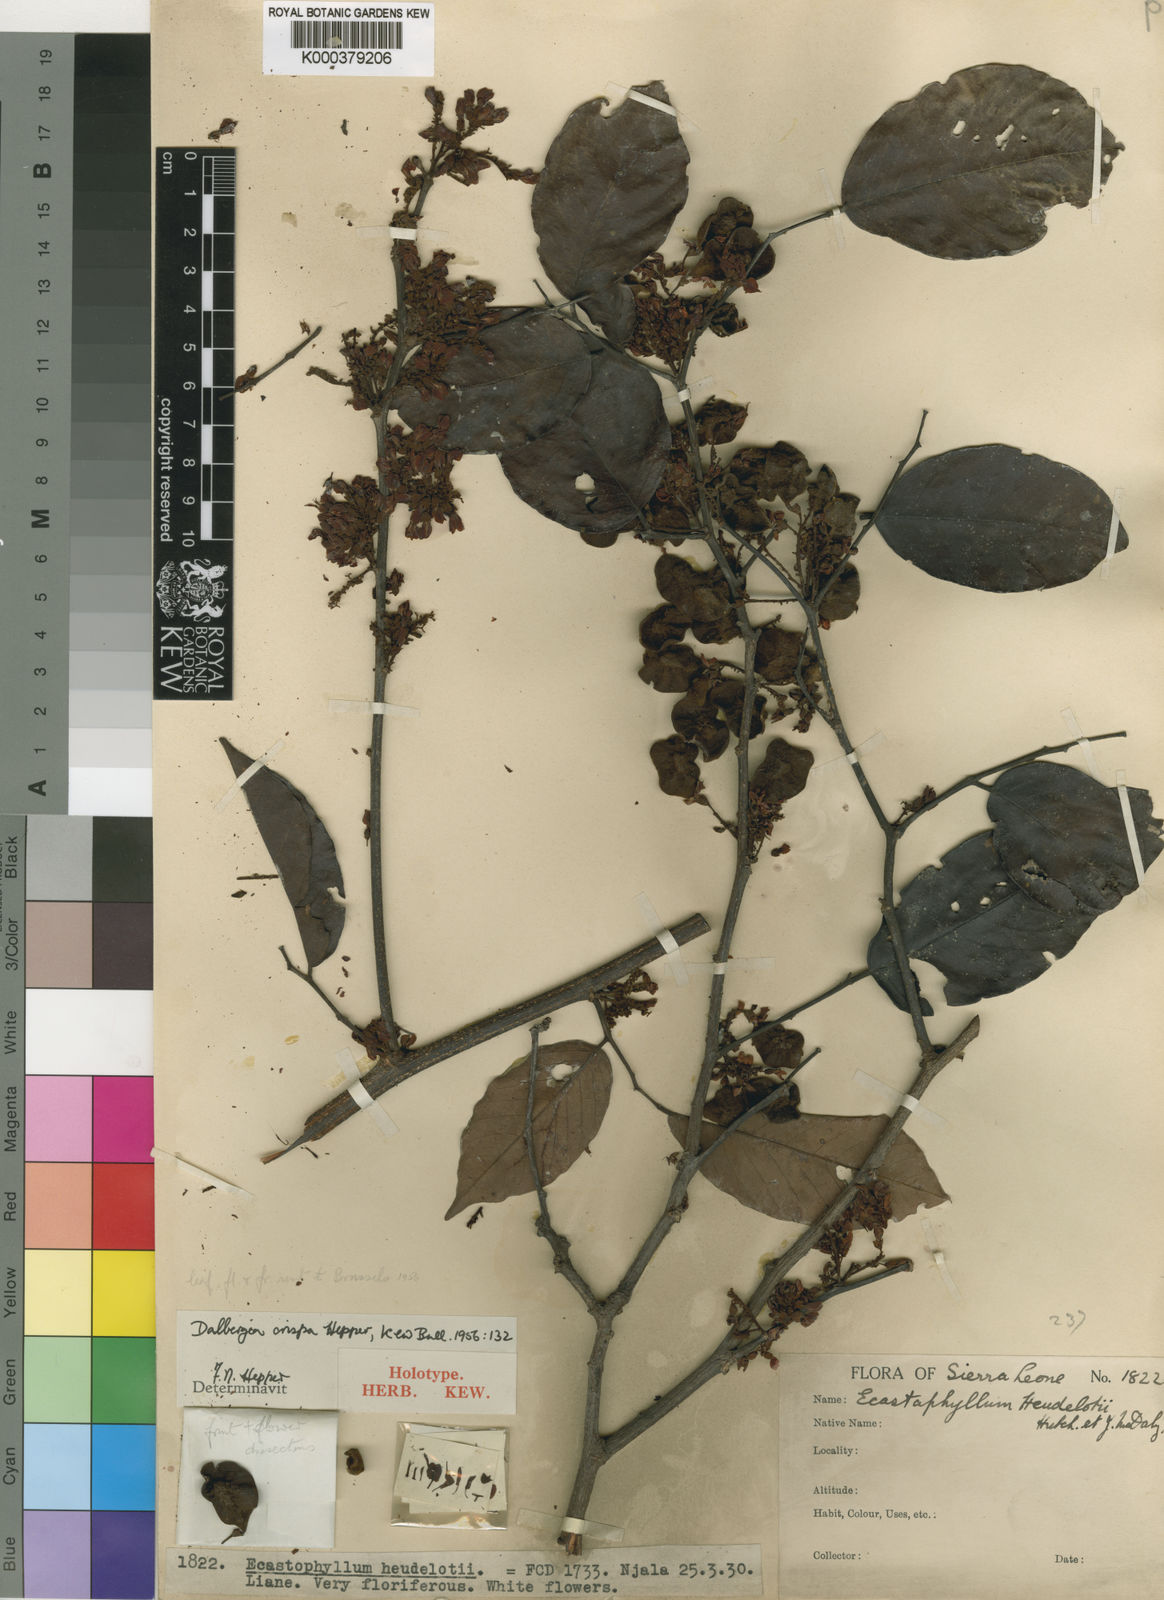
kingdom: Plantae
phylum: Tracheophyta
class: Magnoliopsida
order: Fabales
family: Fabaceae
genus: Dalbergia
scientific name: Dalbergia crispa
